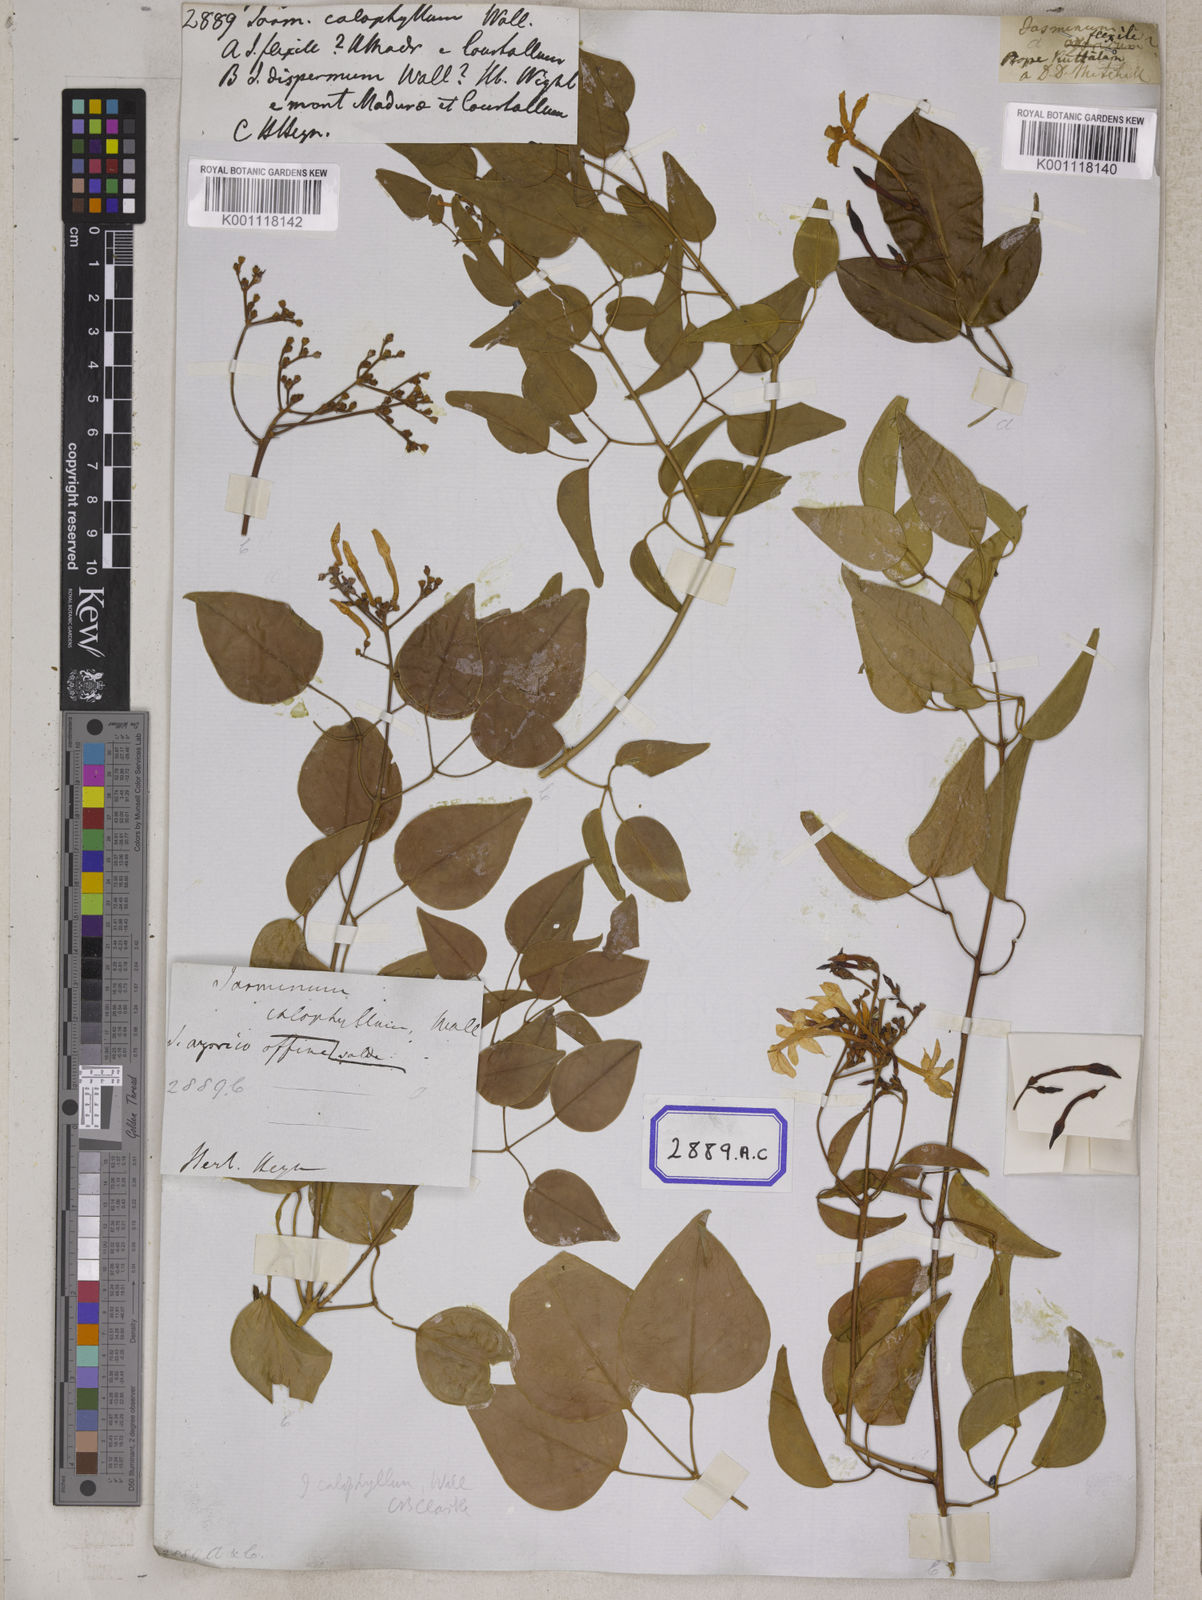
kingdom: Plantae
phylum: Tracheophyta
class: Magnoliopsida
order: Lamiales
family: Oleaceae
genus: Jasminum
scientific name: Jasminum
